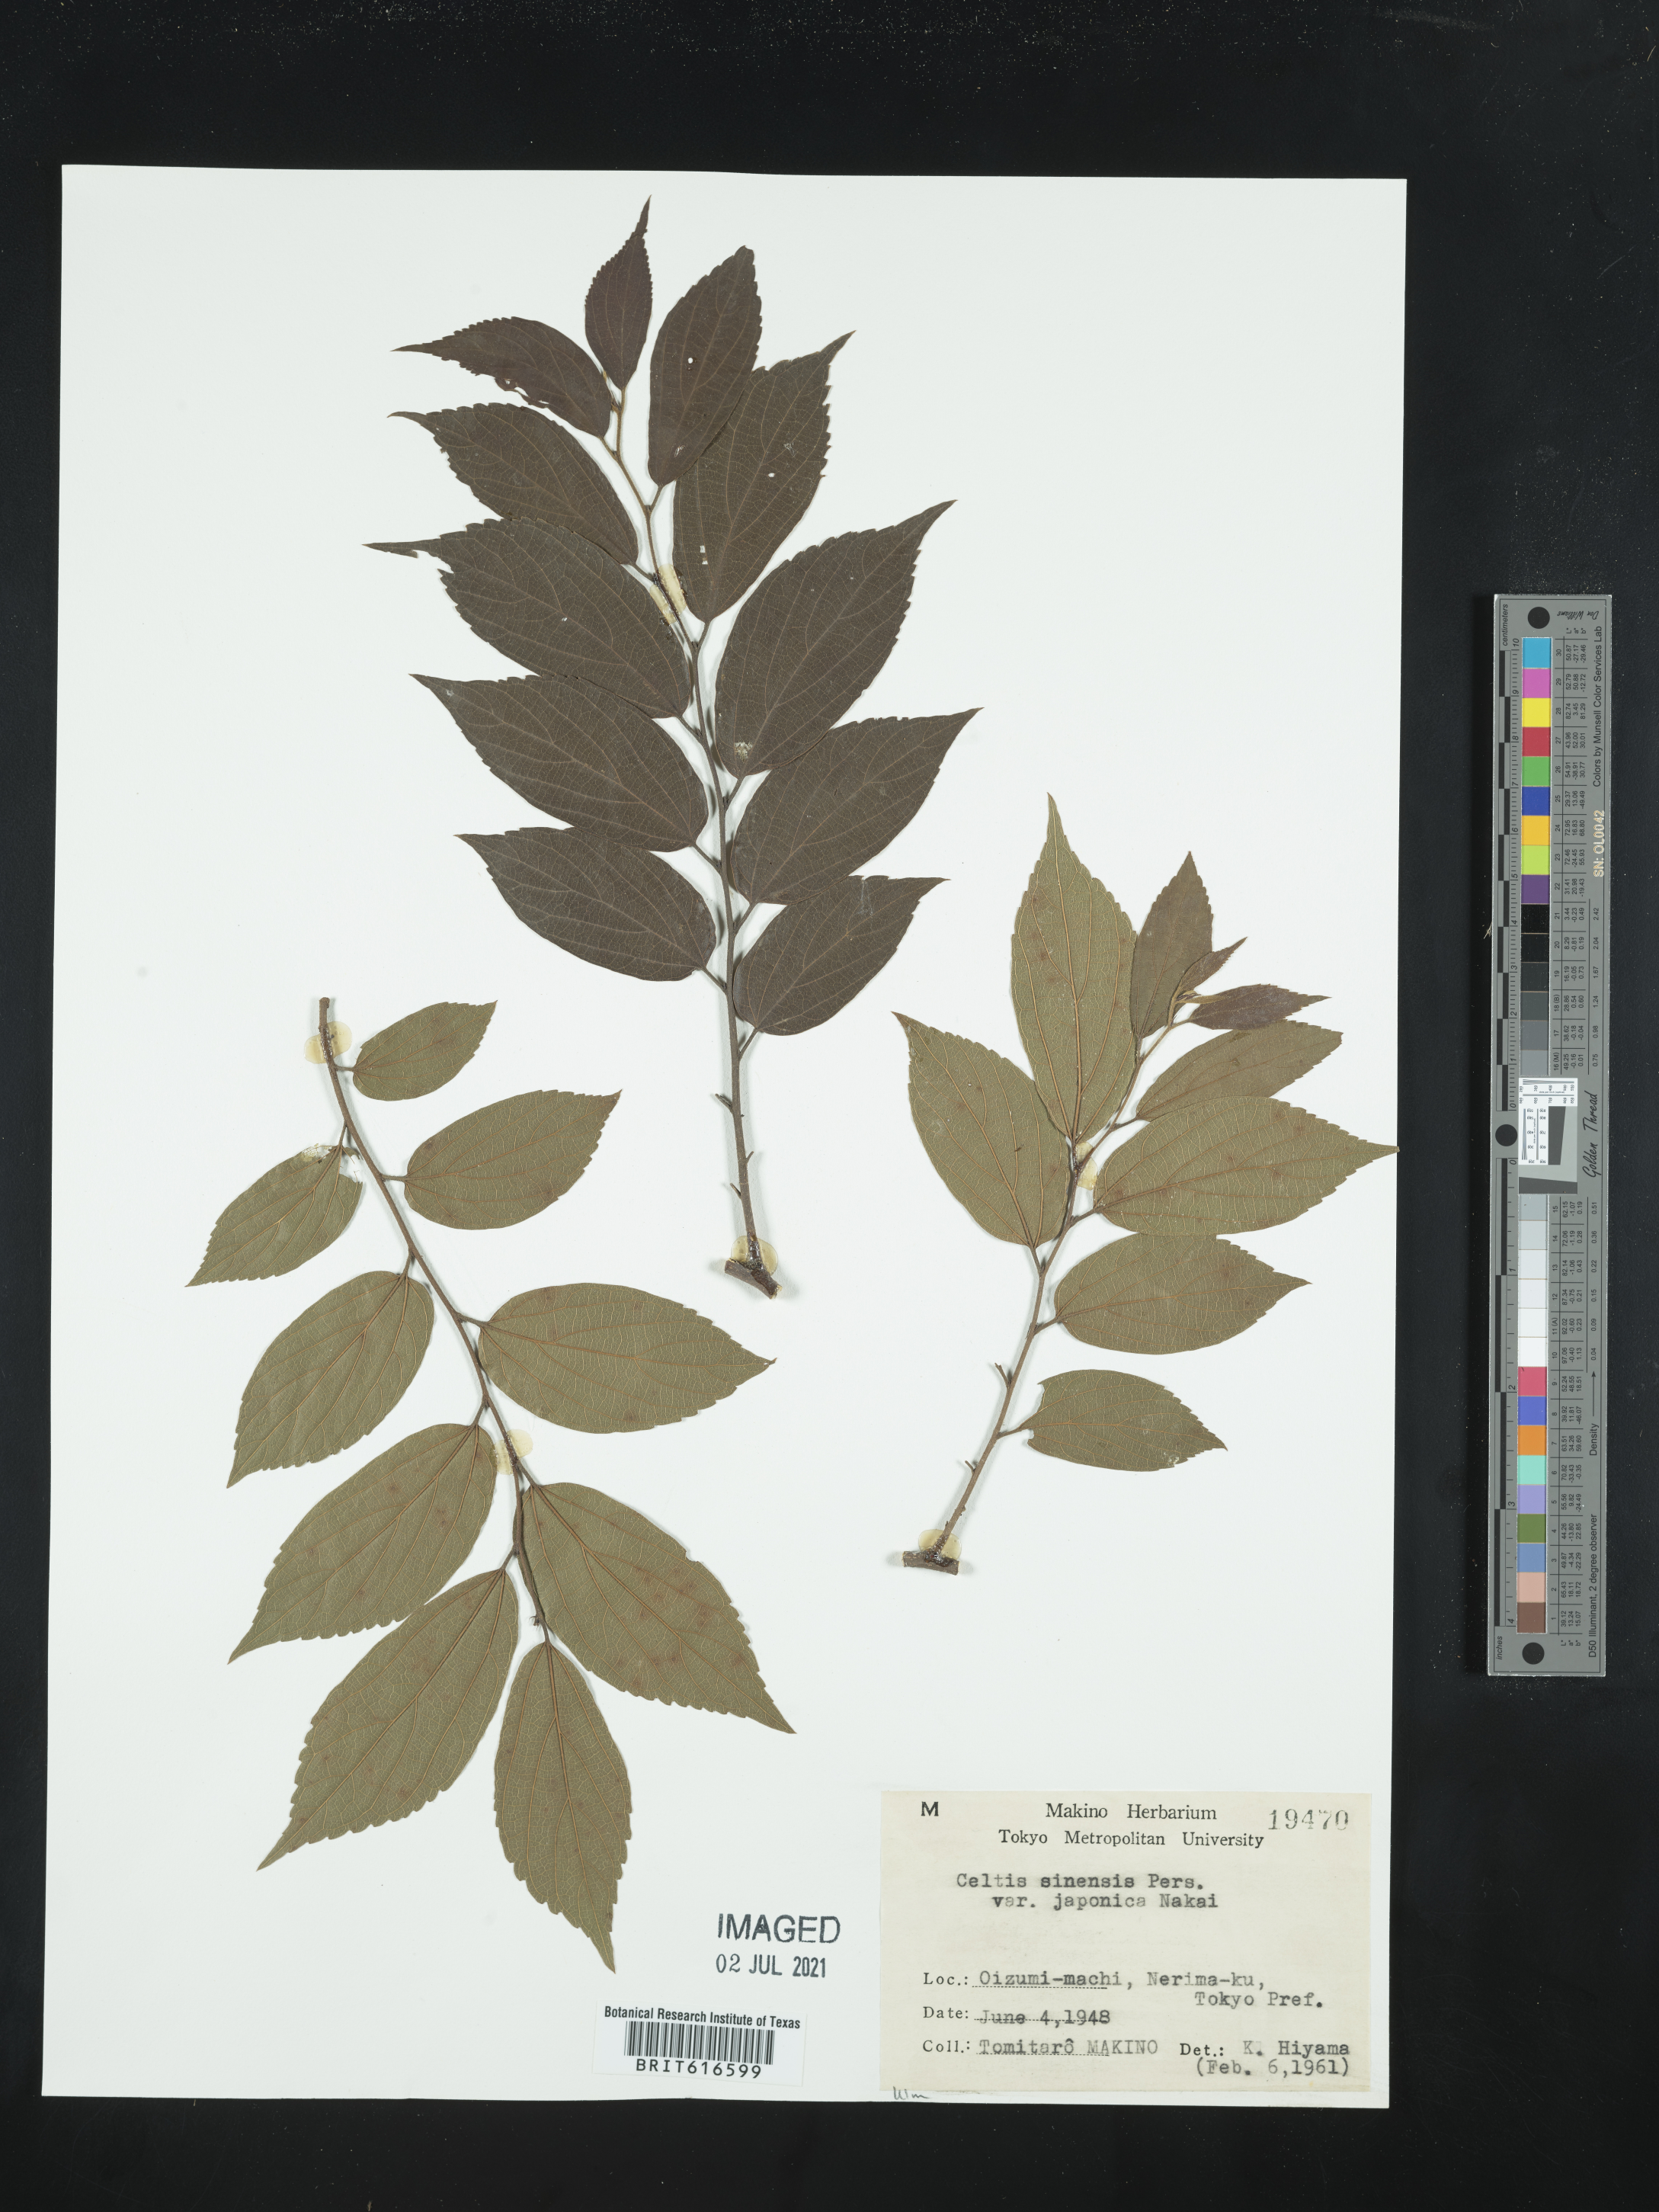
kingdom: Plantae
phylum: Tracheophyta
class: Magnoliopsida
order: Rosales
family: Cannabaceae
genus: Celtis
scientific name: Celtis sinensis
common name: Chinese hackberry
